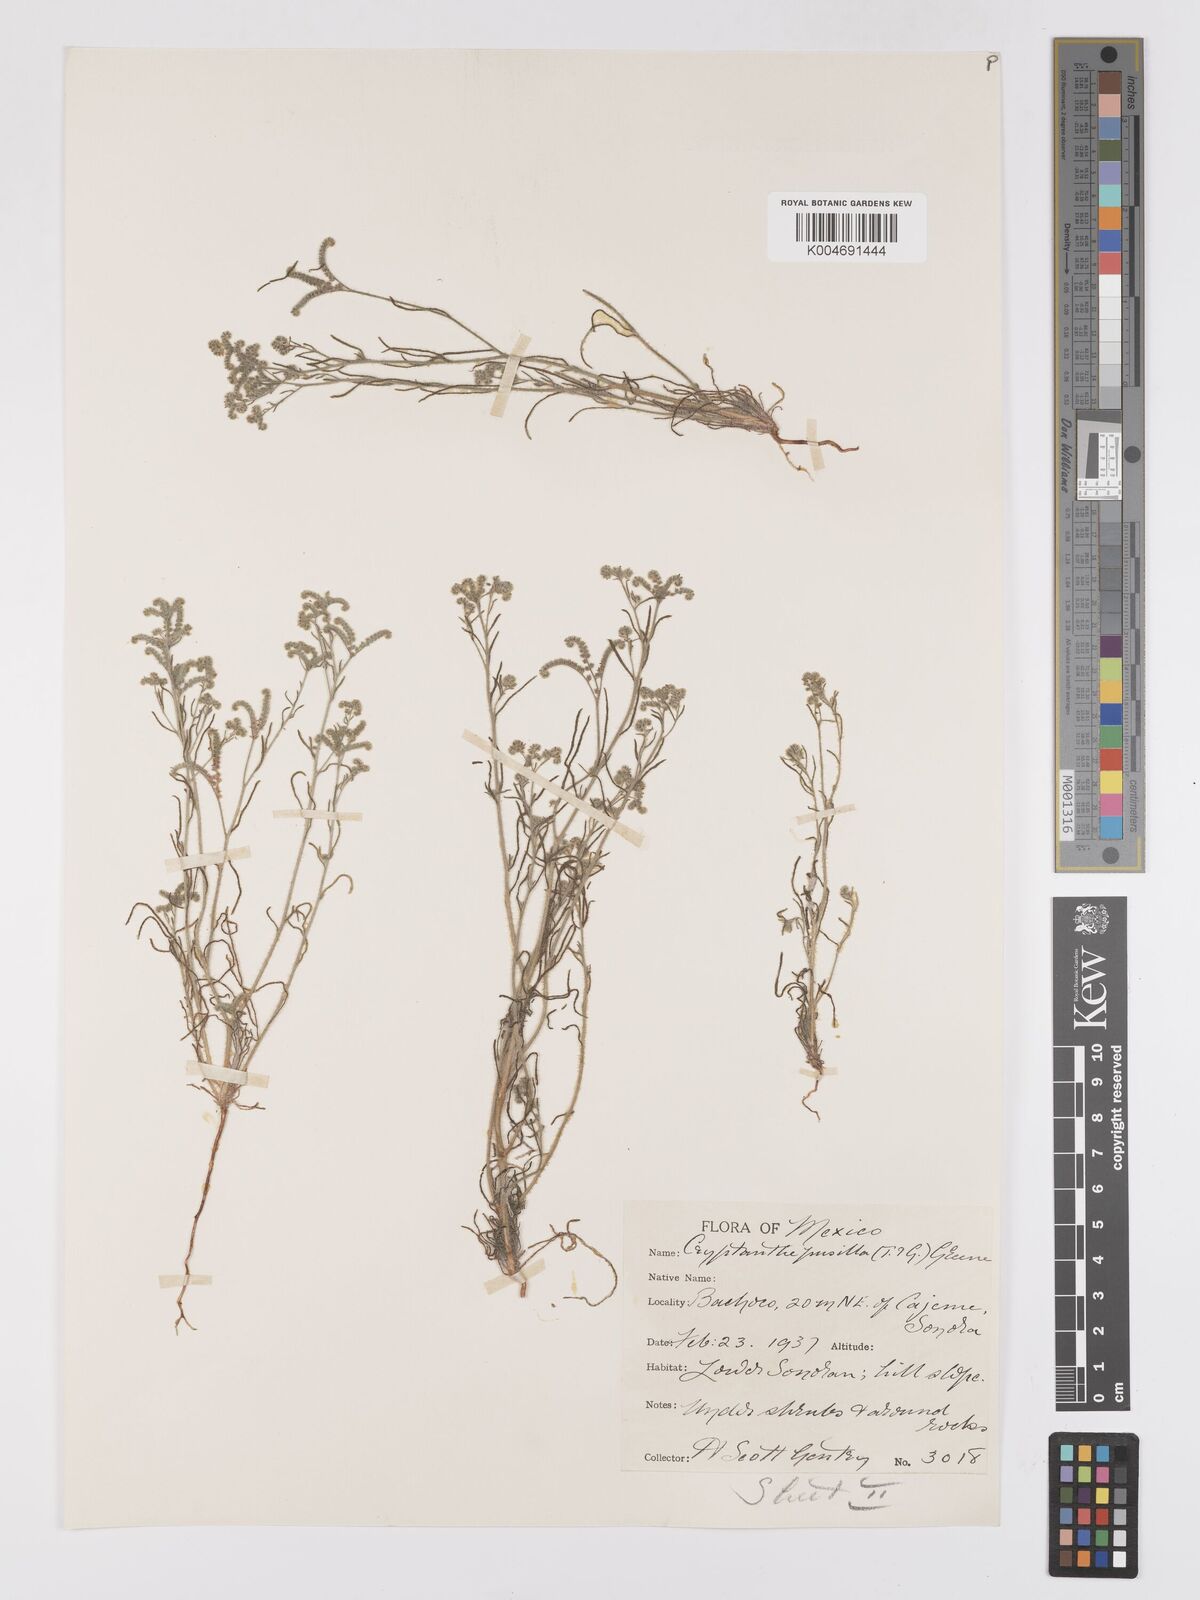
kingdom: Plantae
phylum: Tracheophyta
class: Magnoliopsida
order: Boraginales
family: Boraginaceae
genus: Johnstonella
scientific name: Johnstonella pusilla
